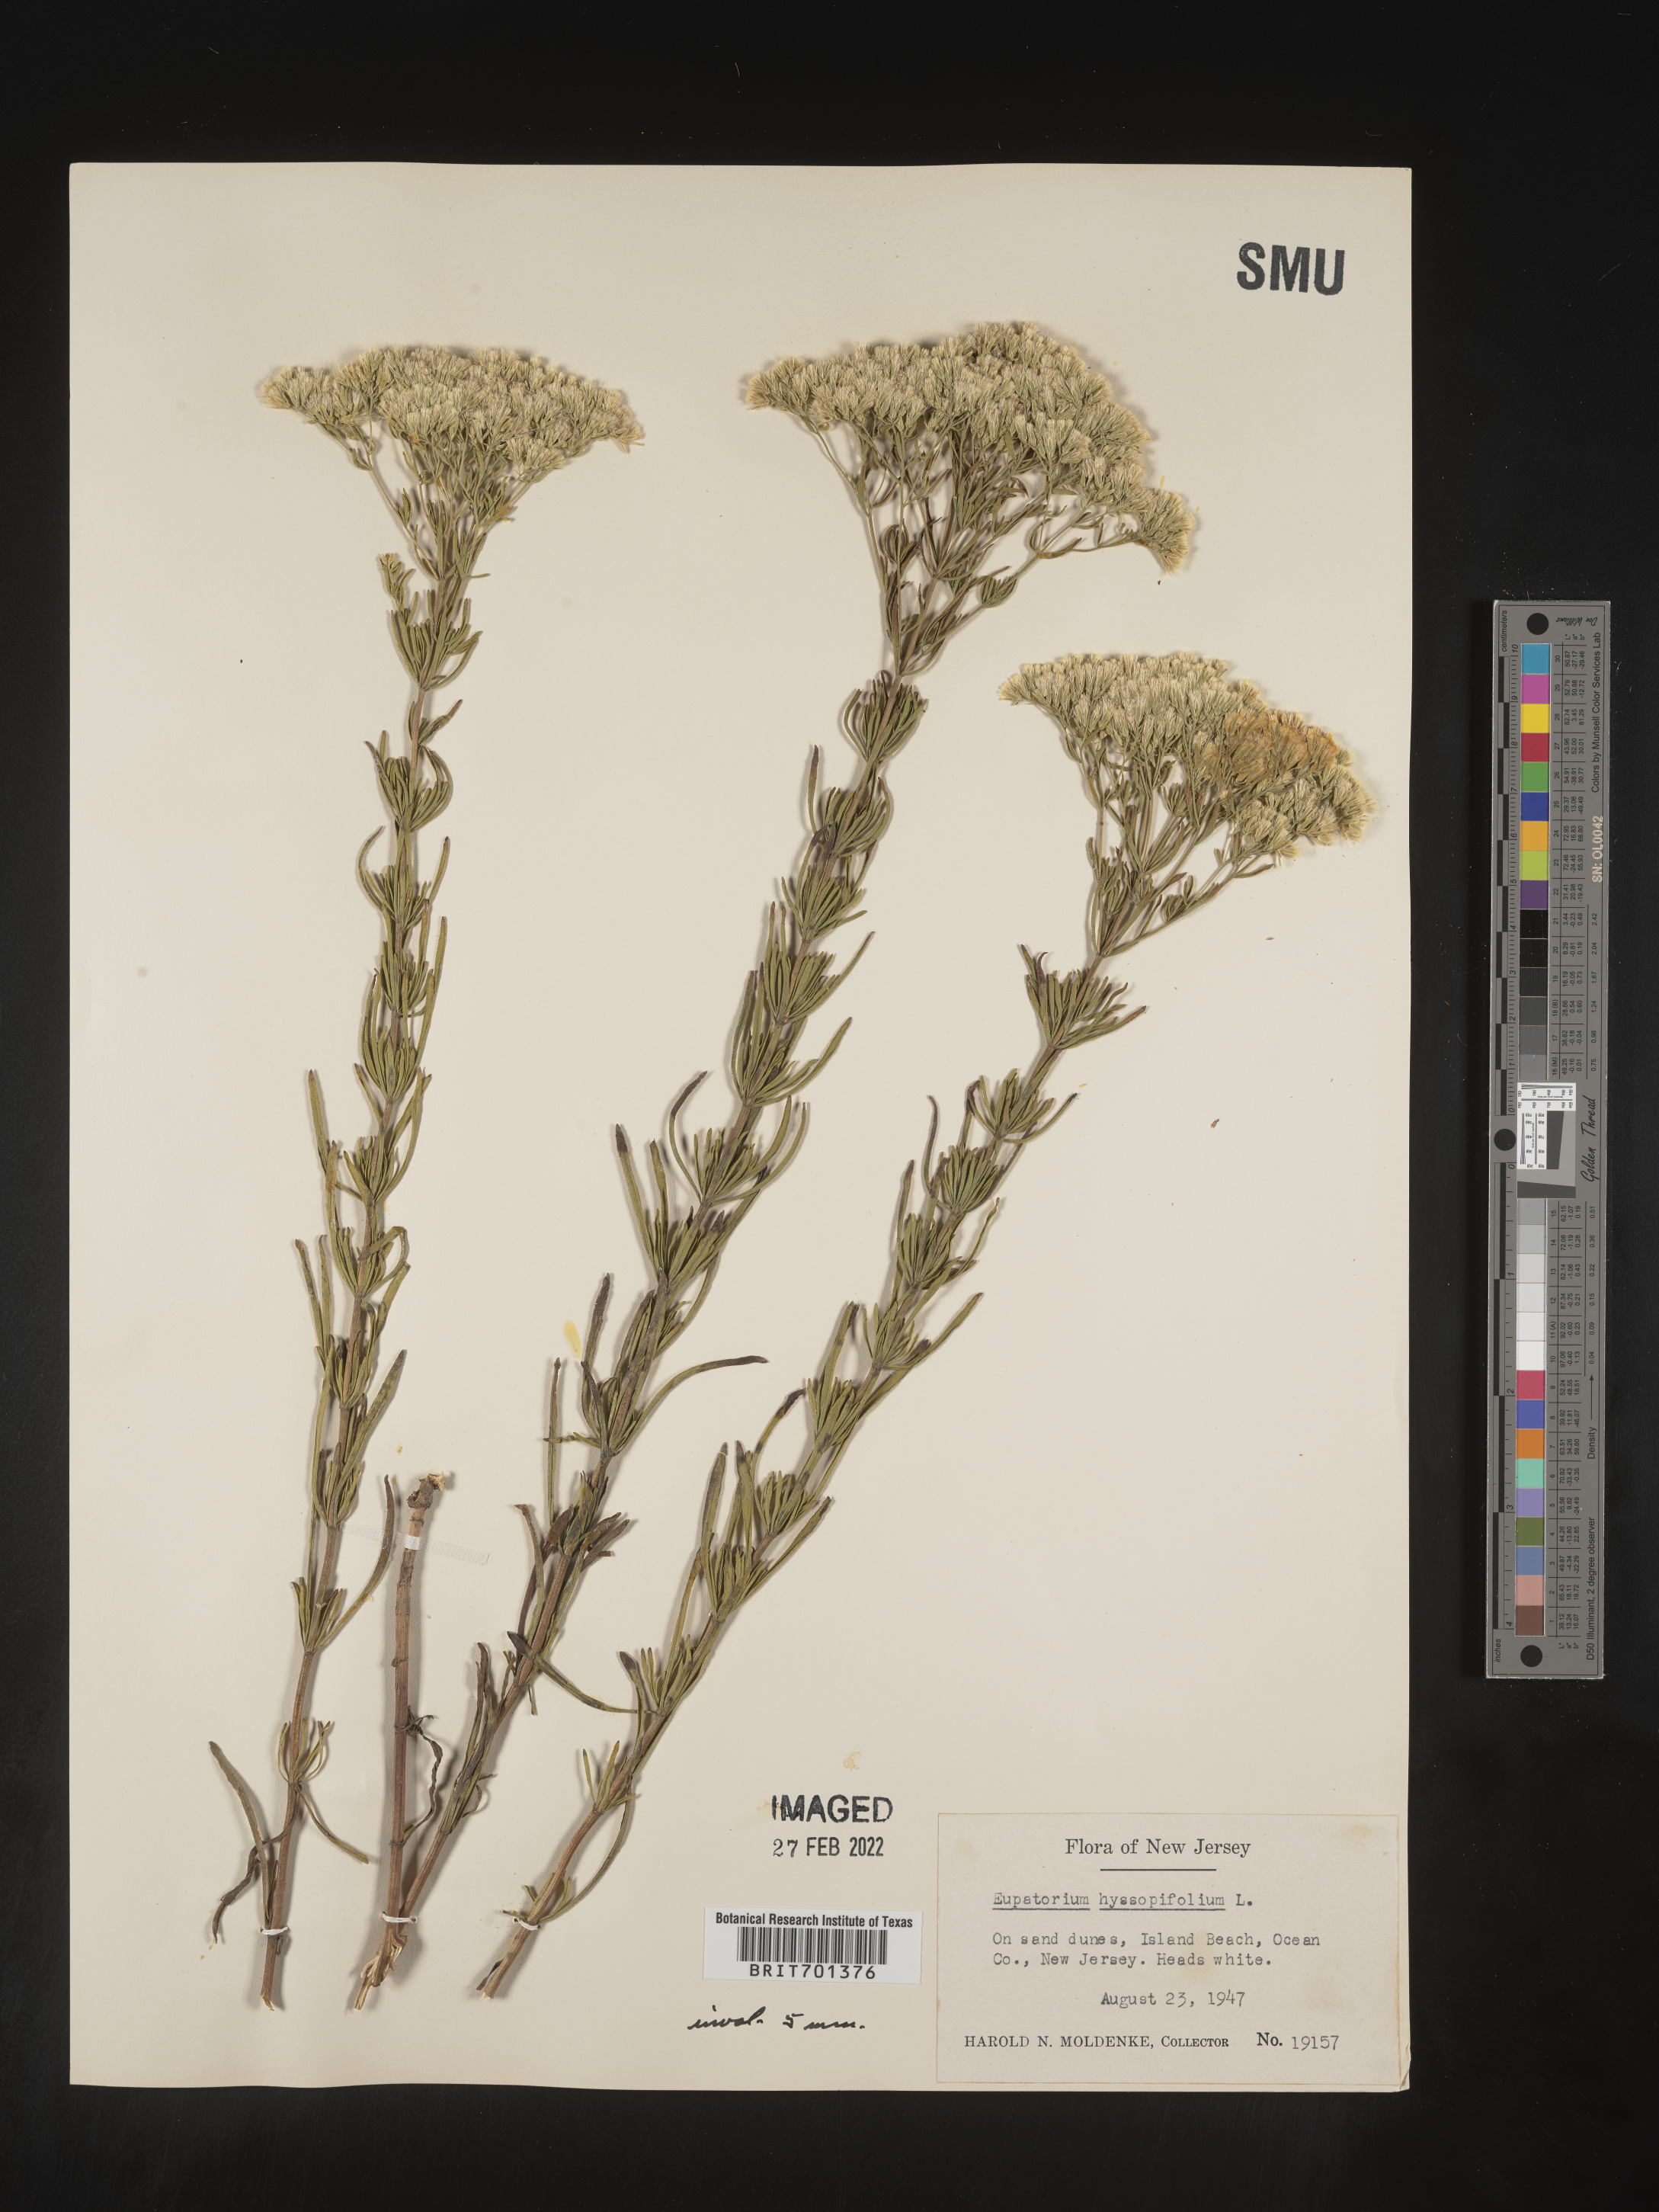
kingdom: Plantae
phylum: Tracheophyta
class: Magnoliopsida
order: Asterales
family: Asteraceae
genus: Eupatorium
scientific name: Eupatorium hyssopifolium
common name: Hyssop-leaf thoroughwort
